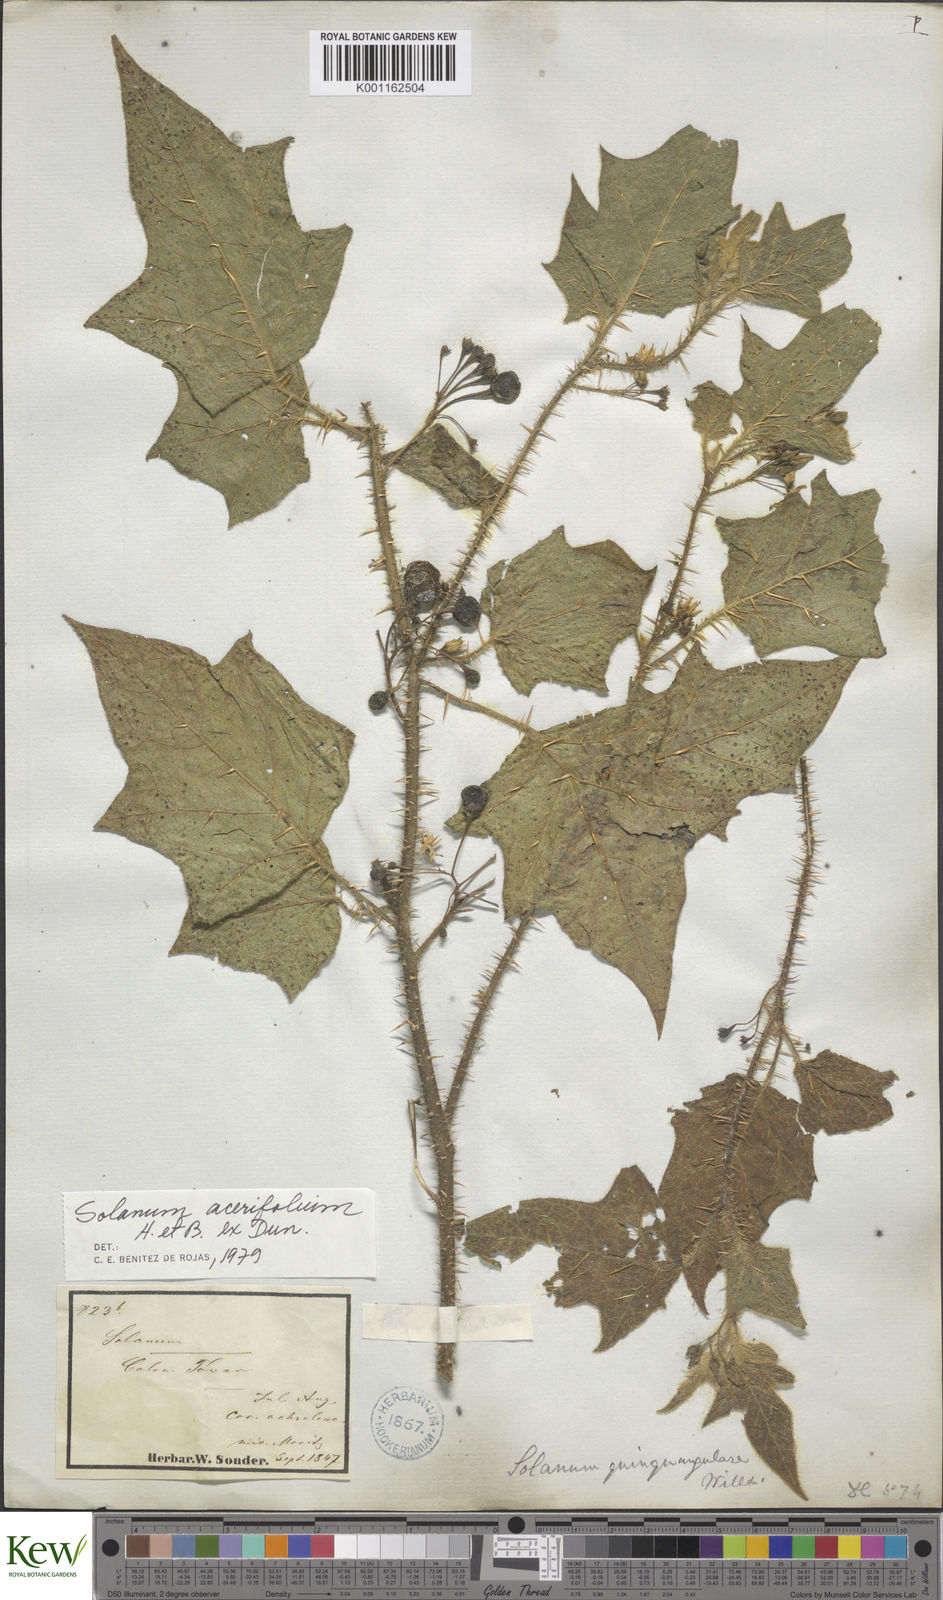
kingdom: Plantae
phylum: Tracheophyta
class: Magnoliopsida
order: Solanales
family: Solanaceae
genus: Solanum
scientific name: Solanum acerifolium
